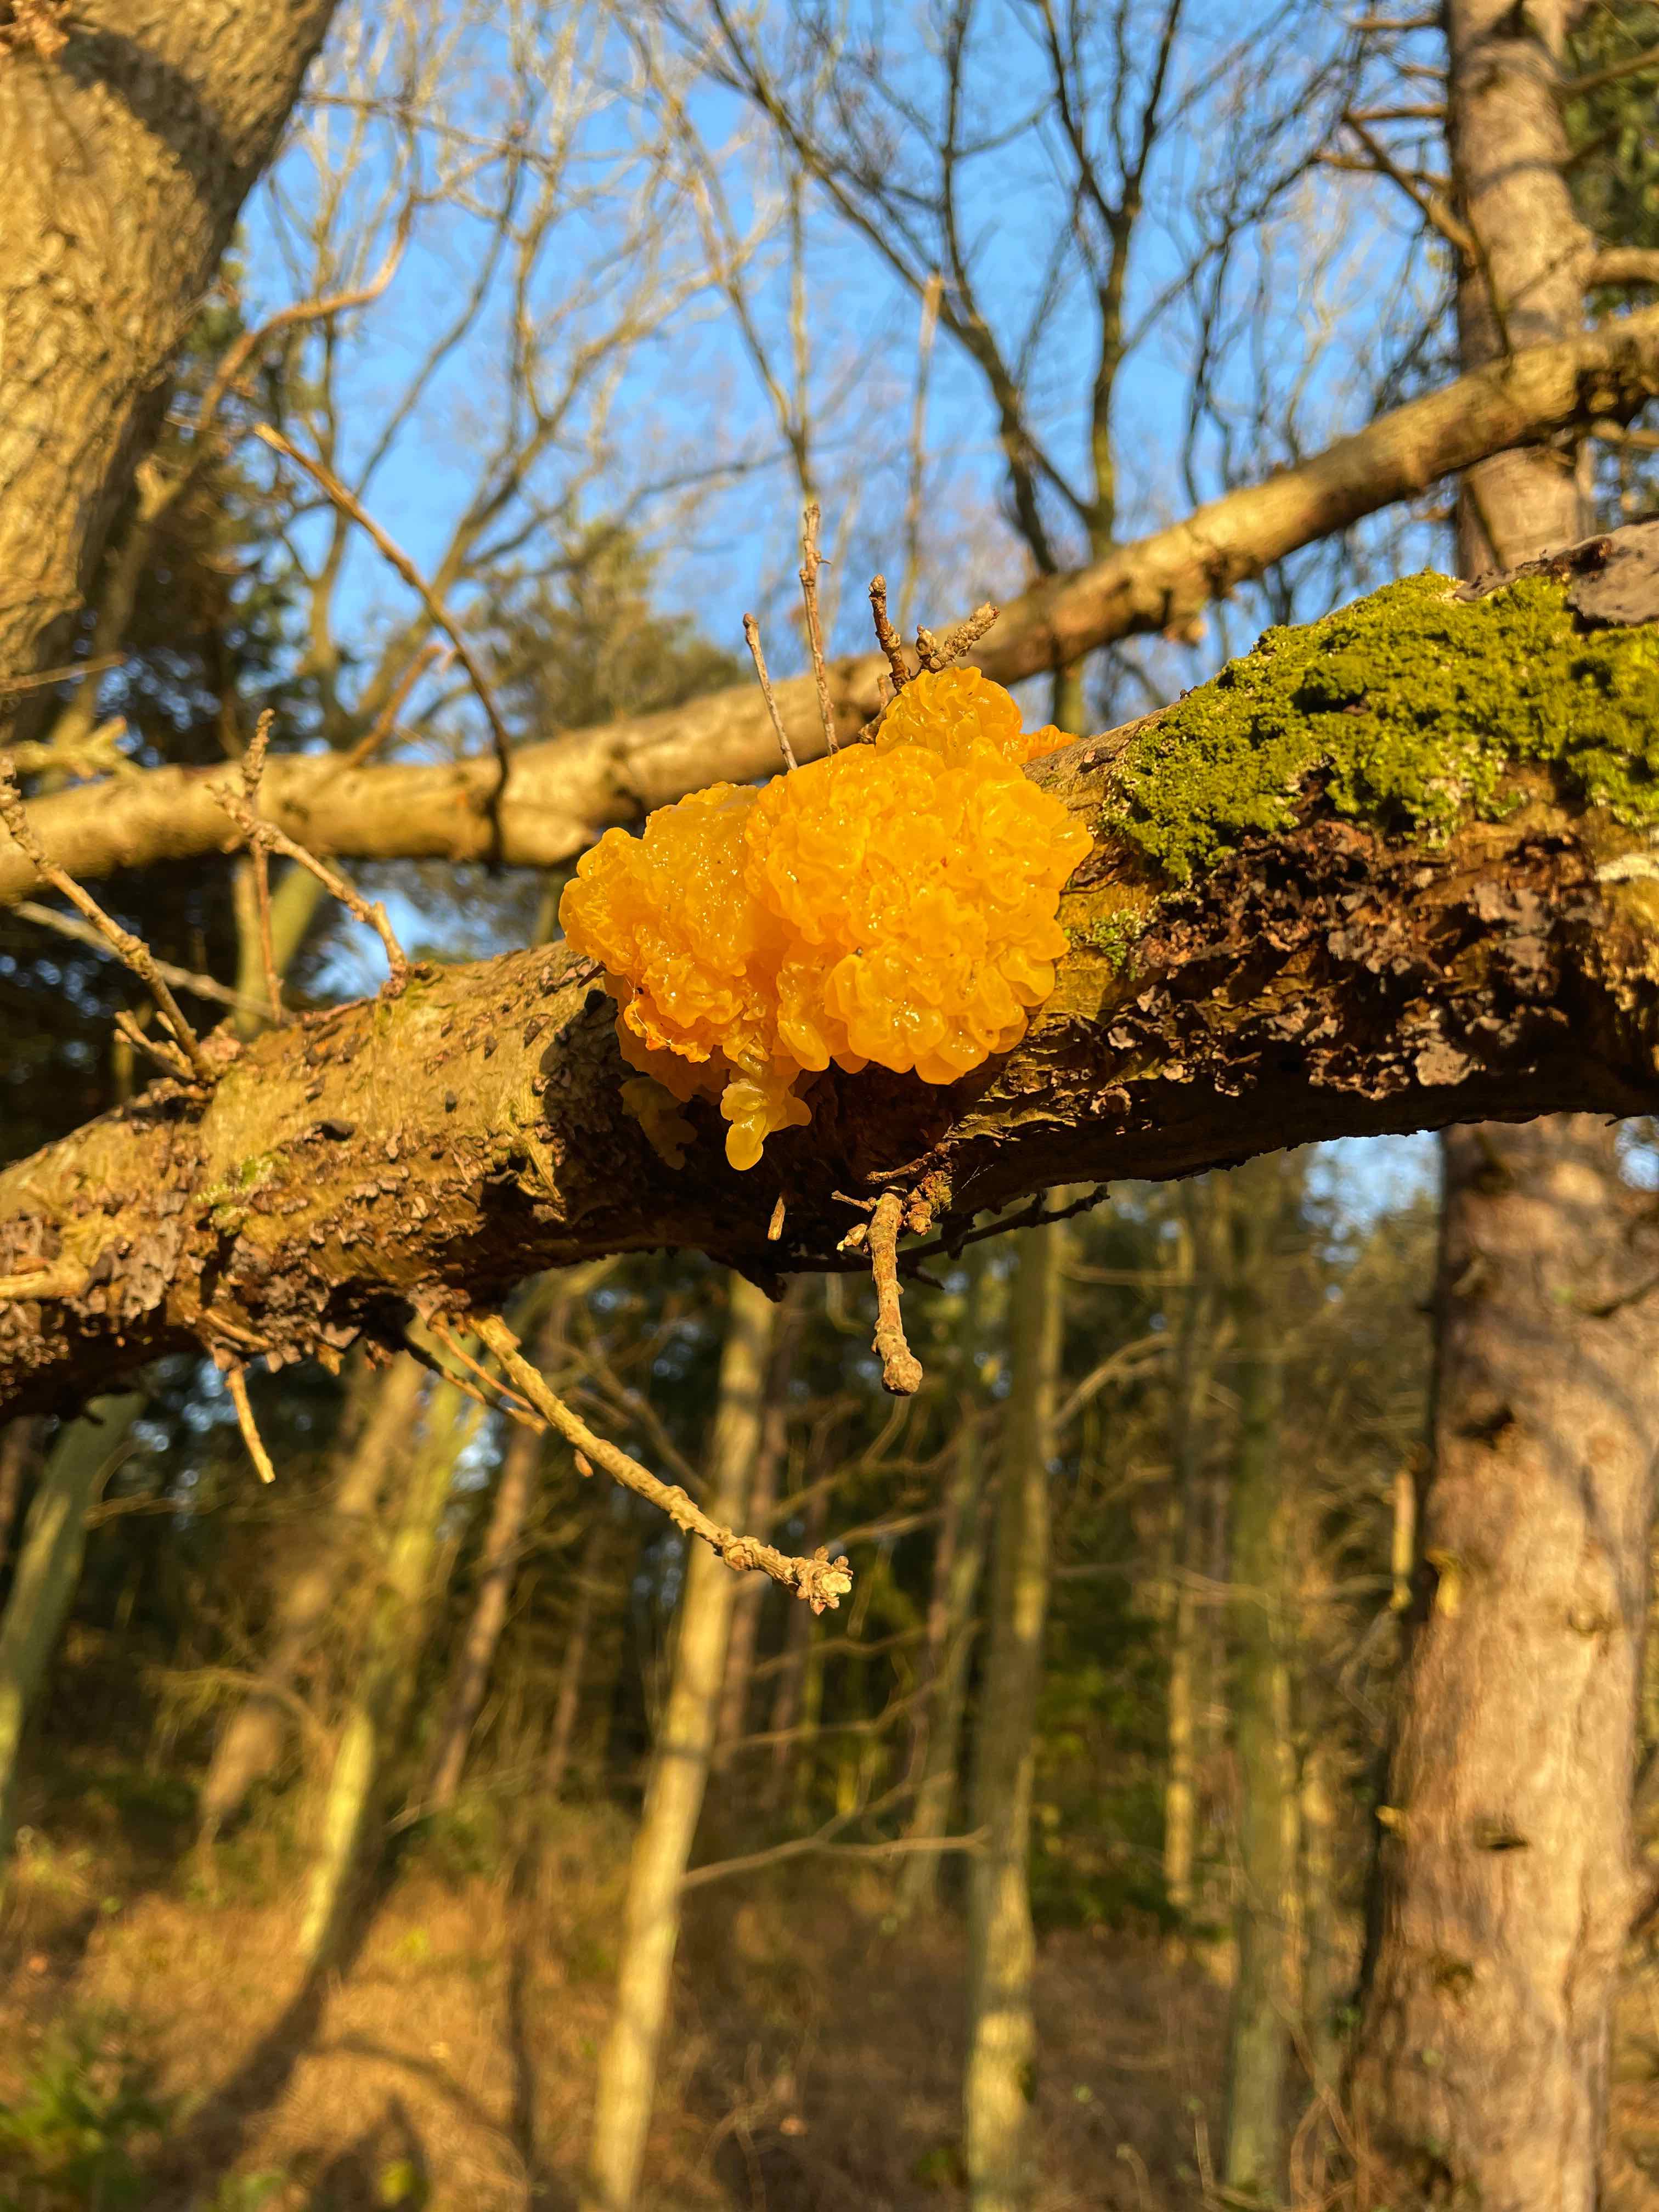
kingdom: Fungi
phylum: Basidiomycota
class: Tremellomycetes
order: Tremellales
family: Tremellaceae
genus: Tremella
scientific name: Tremella mesenterica
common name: gul bævresvamp
